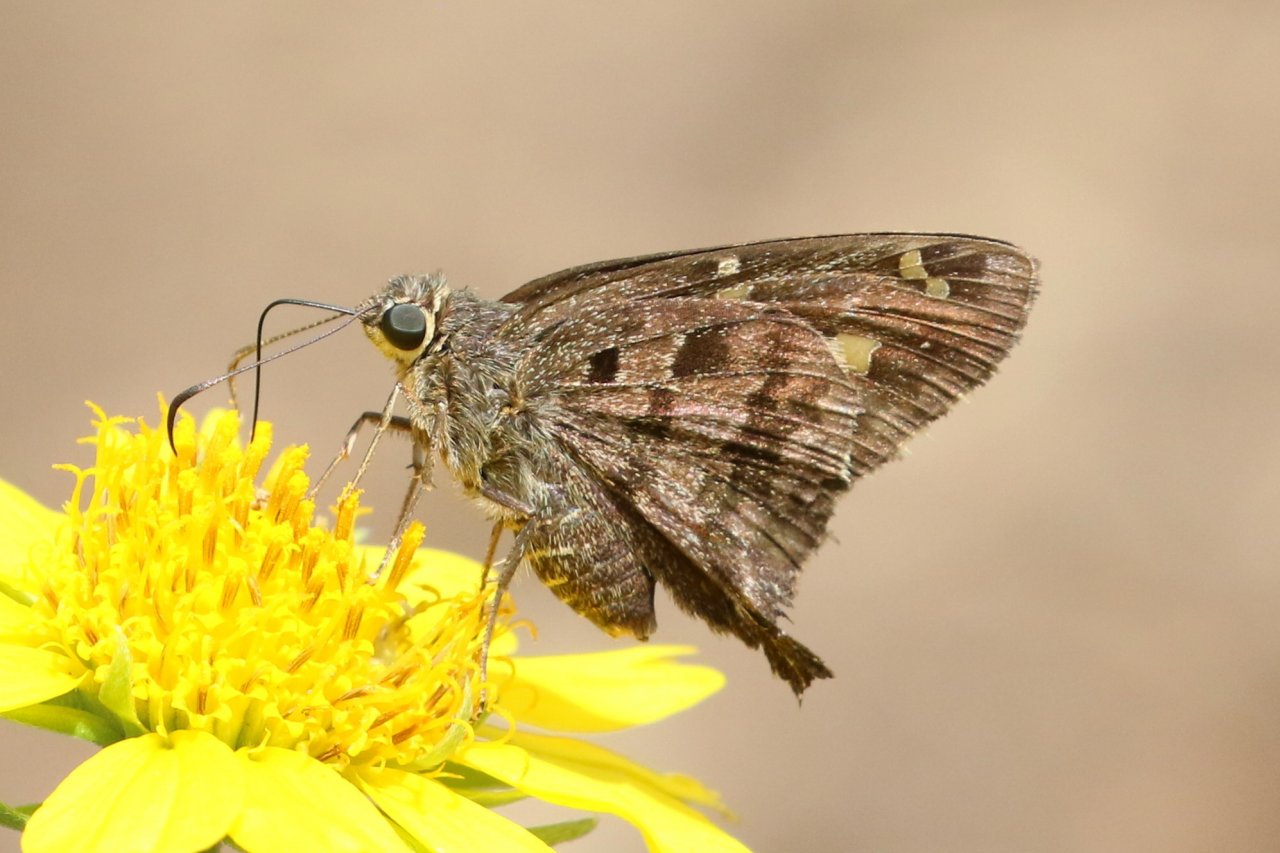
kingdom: Animalia
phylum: Arthropoda
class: Insecta
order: Lepidoptera
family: Hesperiidae
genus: Urbanus
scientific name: Urbanus dorantes
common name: Dorantes Longtail
